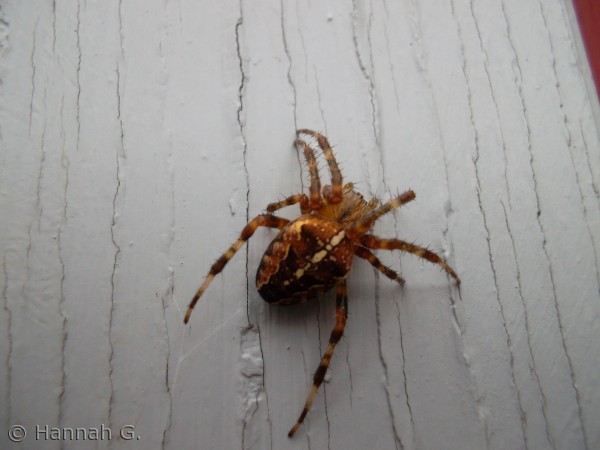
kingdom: Animalia
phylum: Arthropoda
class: Arachnida
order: Araneae
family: Araneidae
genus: Araneus
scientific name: Araneus diadematus
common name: Korsedderkop
